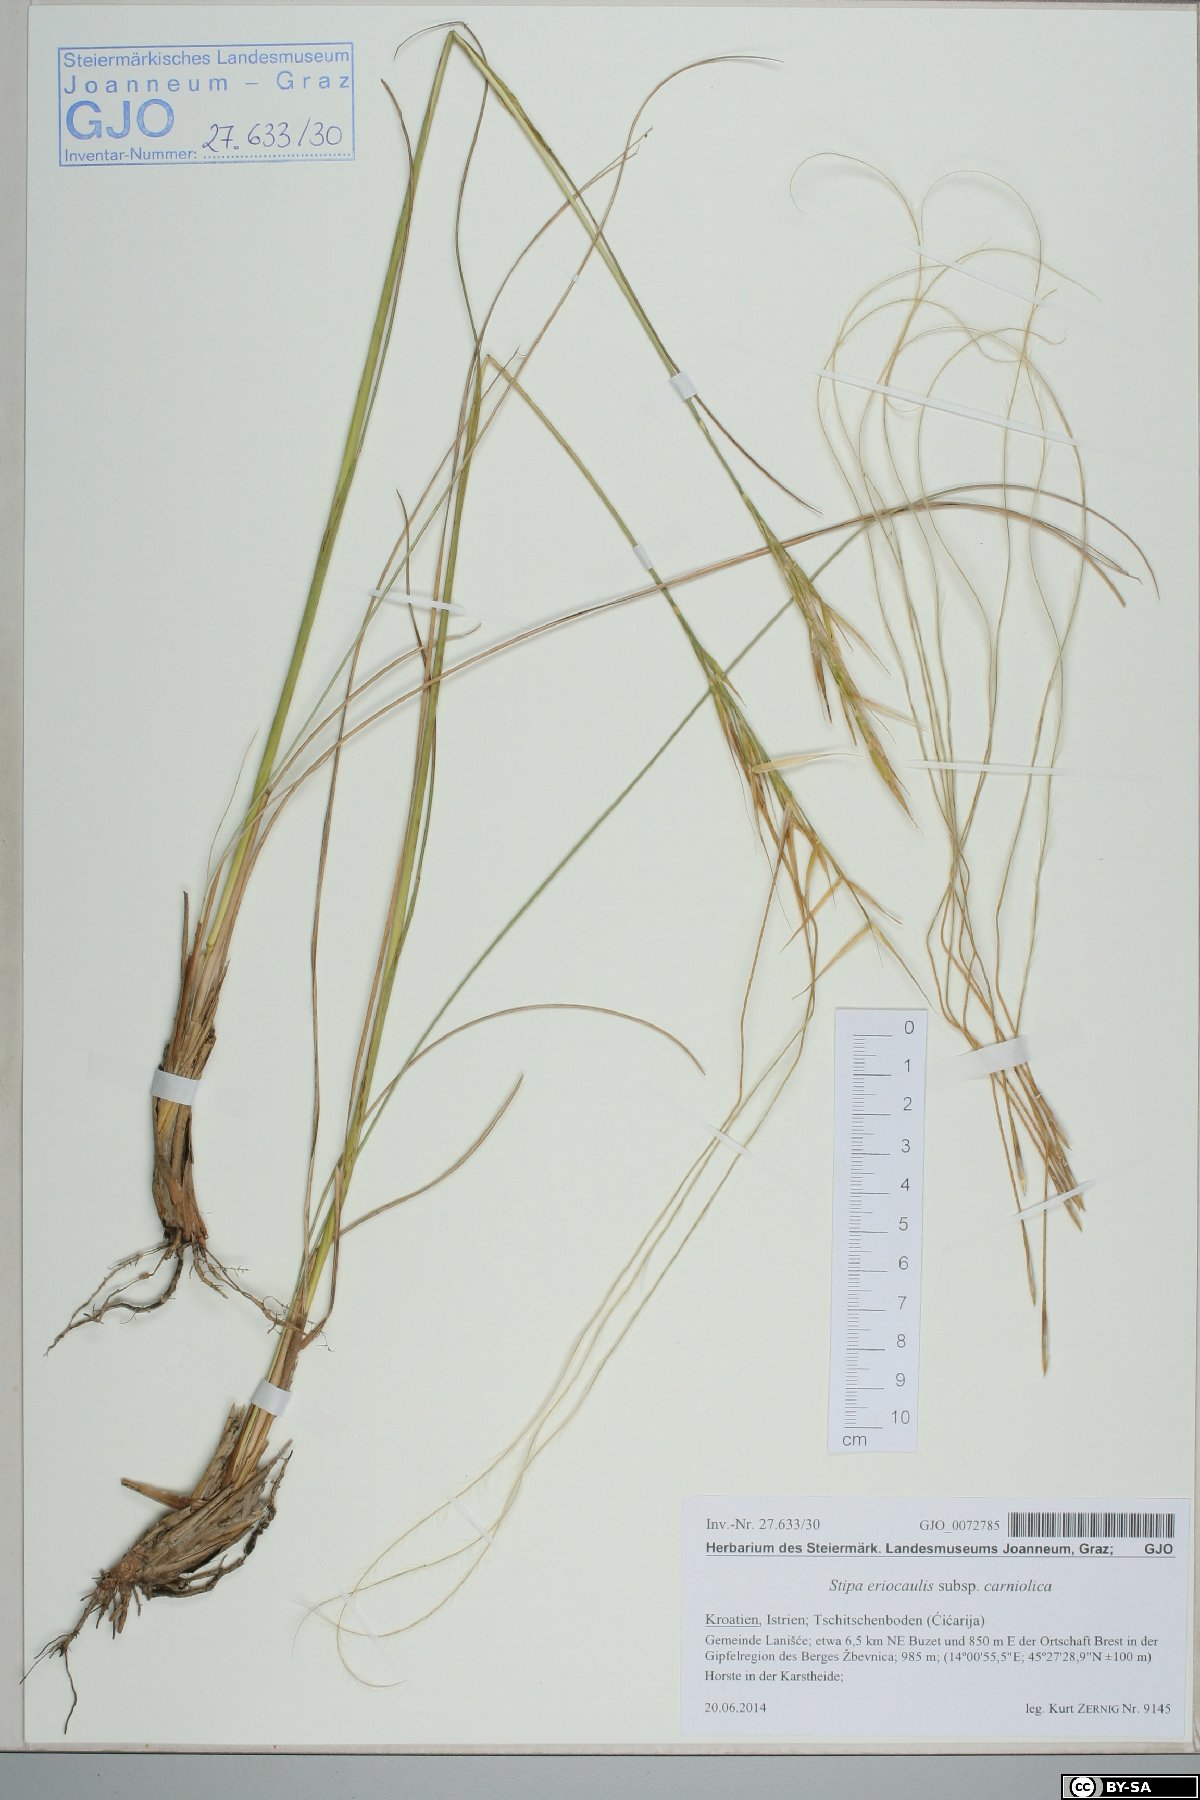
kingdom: Plantae
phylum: Tracheophyta
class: Liliopsida
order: Poales
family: Poaceae
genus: Stipa
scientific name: Stipa pennata
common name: European feather grass
